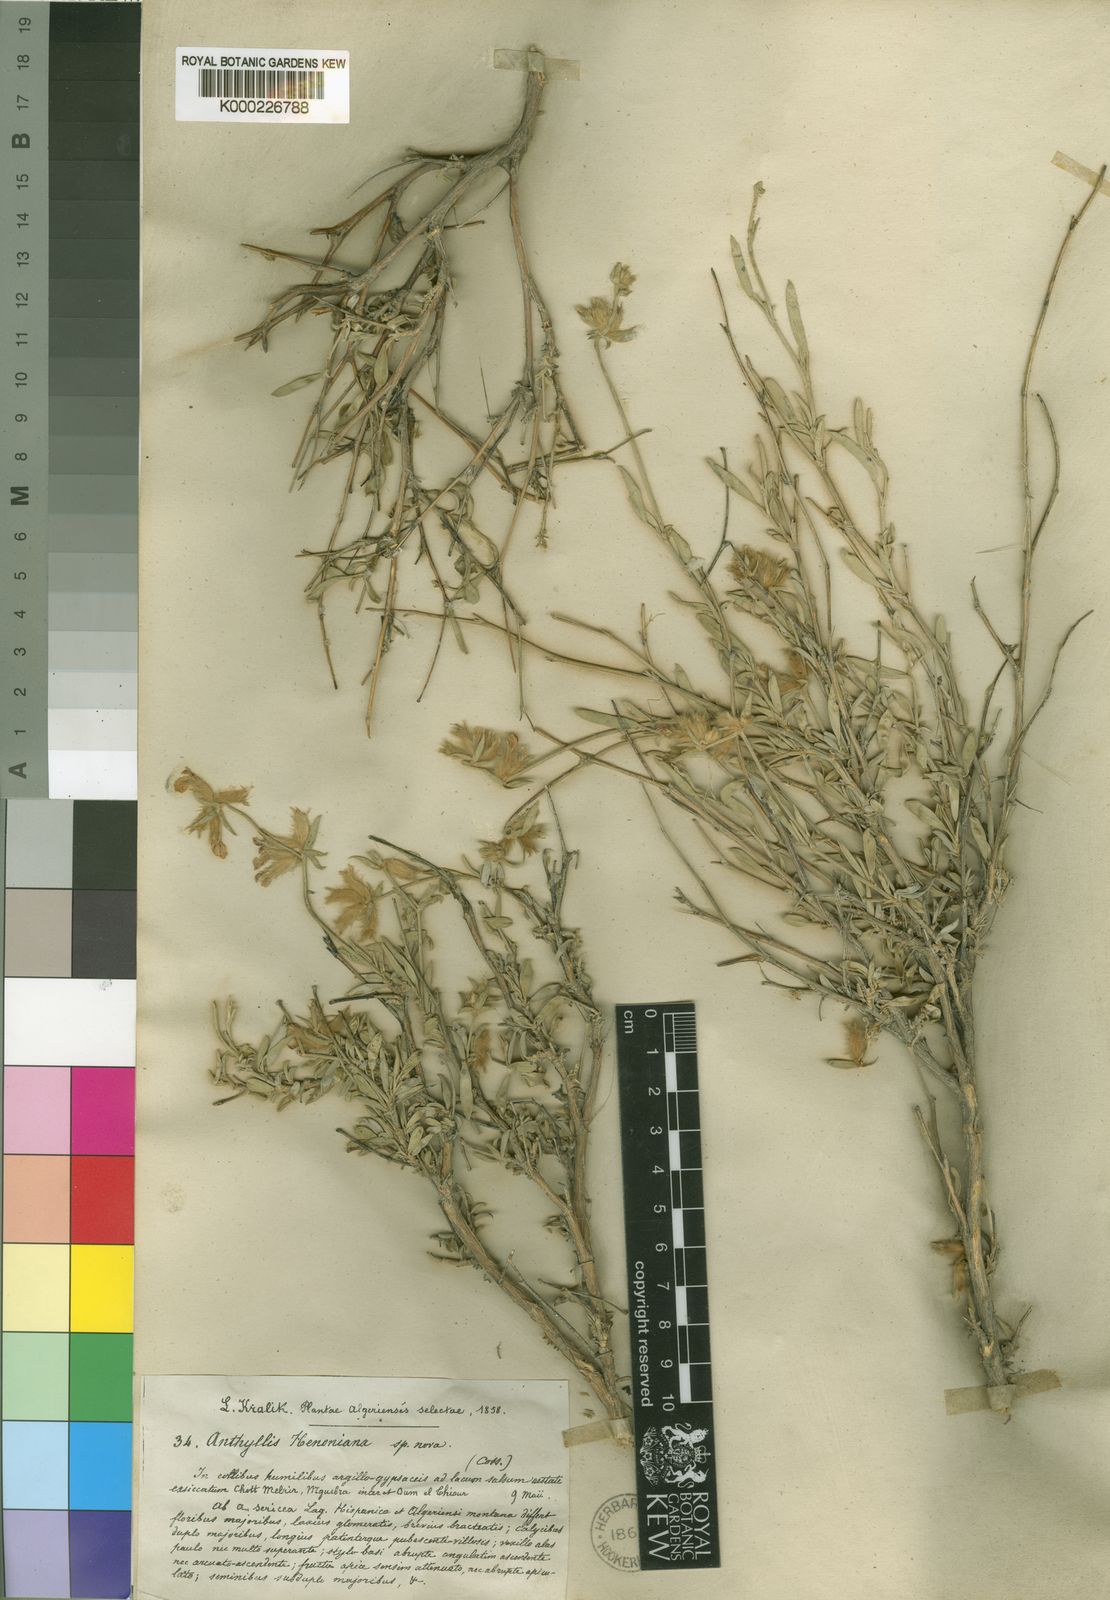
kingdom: Plantae
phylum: Tracheophyta
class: Magnoliopsida
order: Fabales
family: Fabaceae
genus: Anthyllis
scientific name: Anthyllis subsimplex
